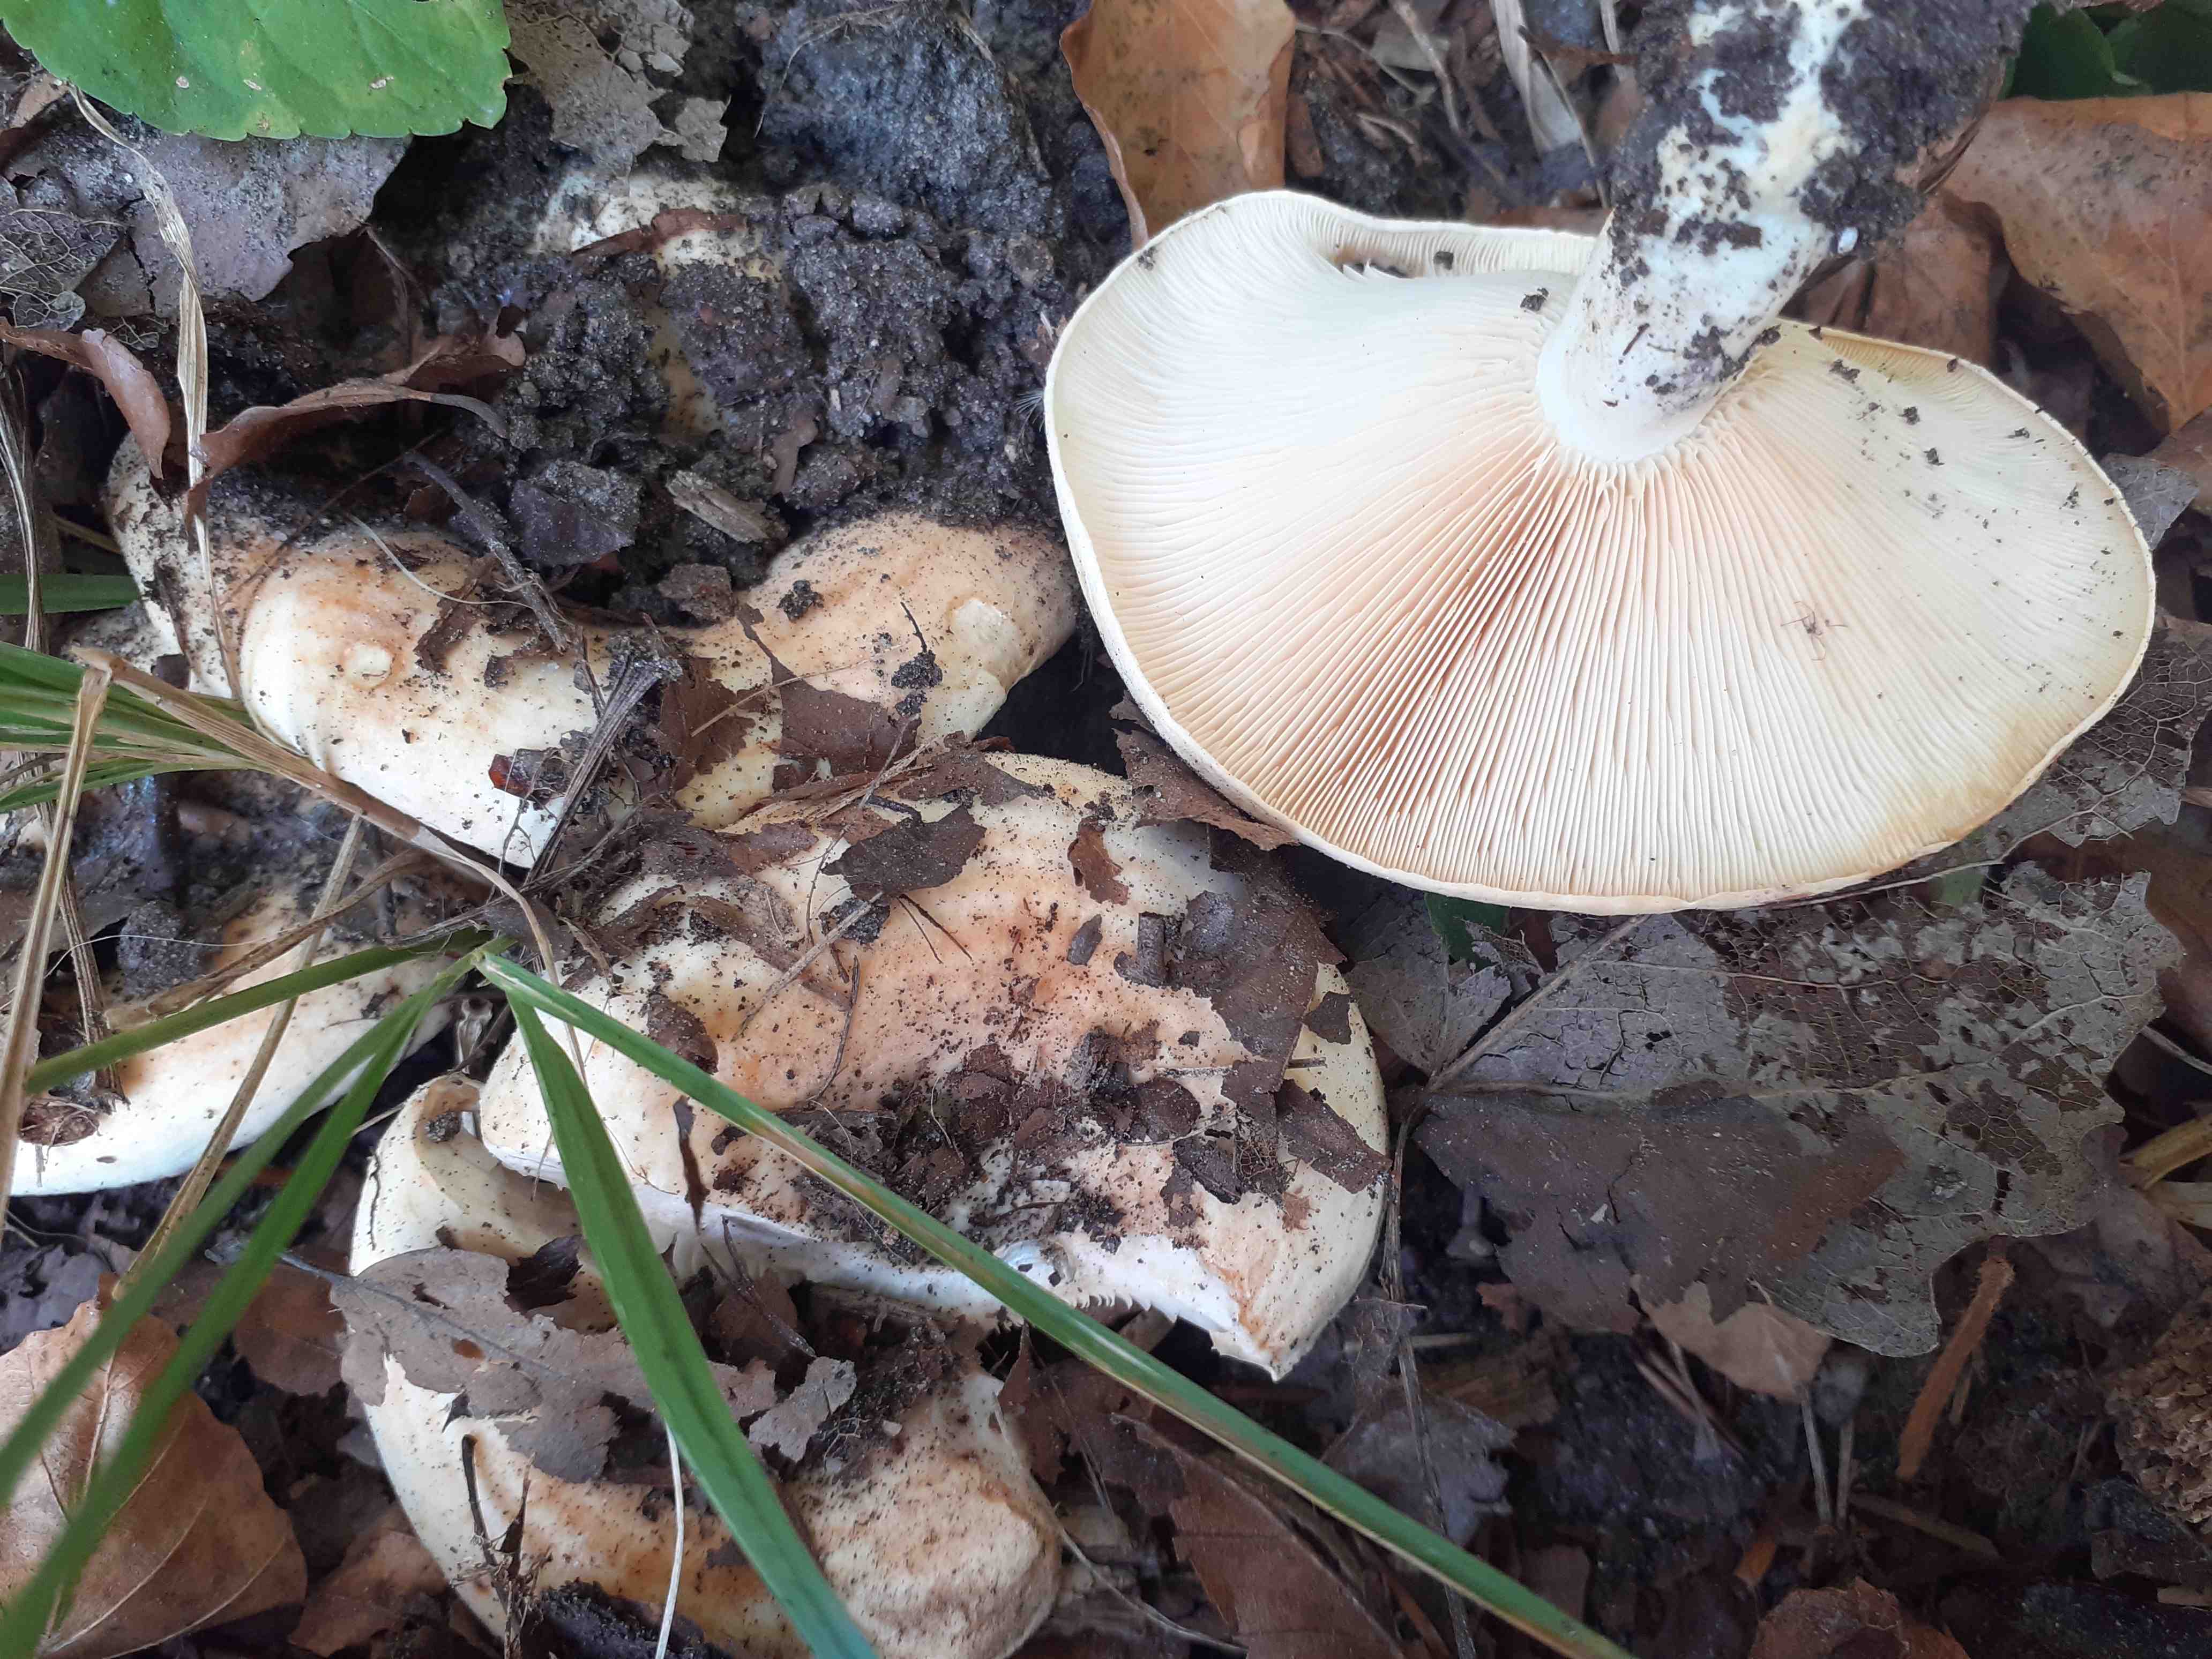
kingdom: Fungi
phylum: Basidiomycota
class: Agaricomycetes
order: Russulales
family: Russulaceae
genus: Lactarius
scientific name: Lactarius evosmus
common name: bæltet mælkehat
